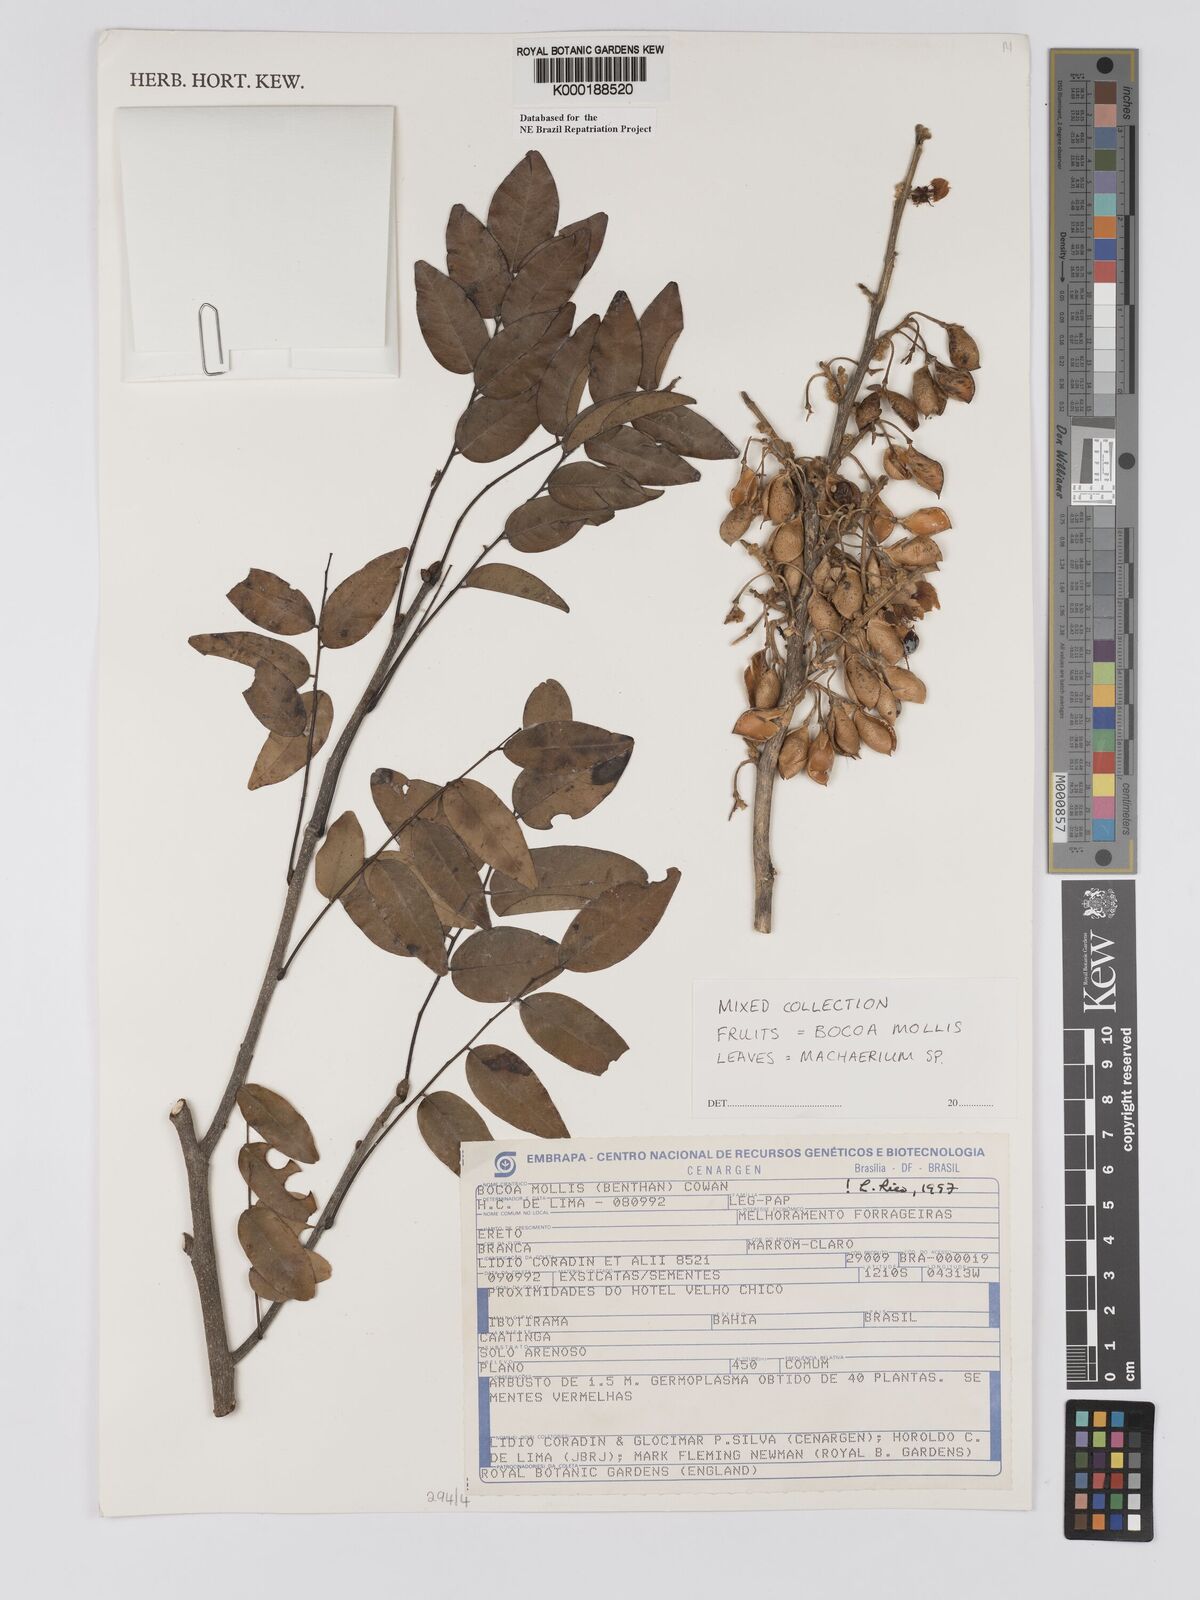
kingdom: Plantae
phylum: Tracheophyta
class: Magnoliopsida
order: Fabales
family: Fabaceae
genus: Trischidium
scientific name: Trischidium
